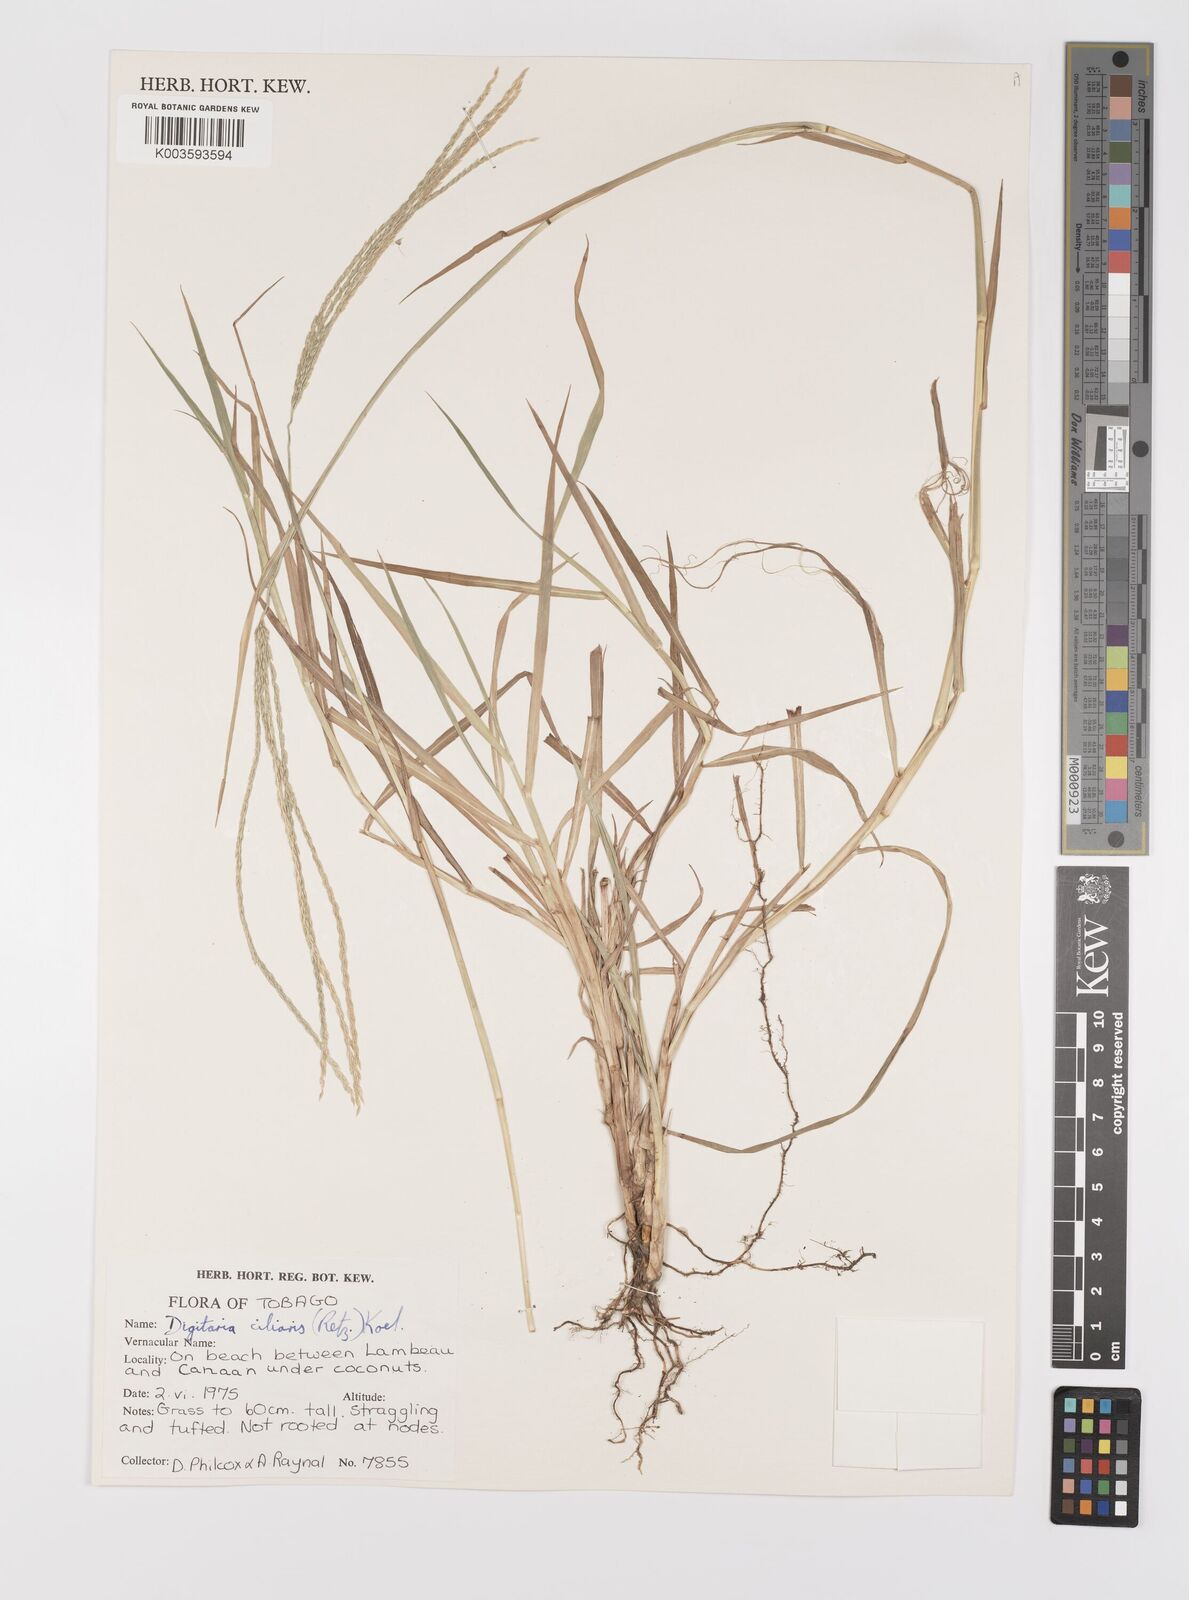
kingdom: Plantae
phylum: Tracheophyta
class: Liliopsida
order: Poales
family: Poaceae
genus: Digitaria
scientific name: Digitaria ciliaris
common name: Tropical finger-grass
